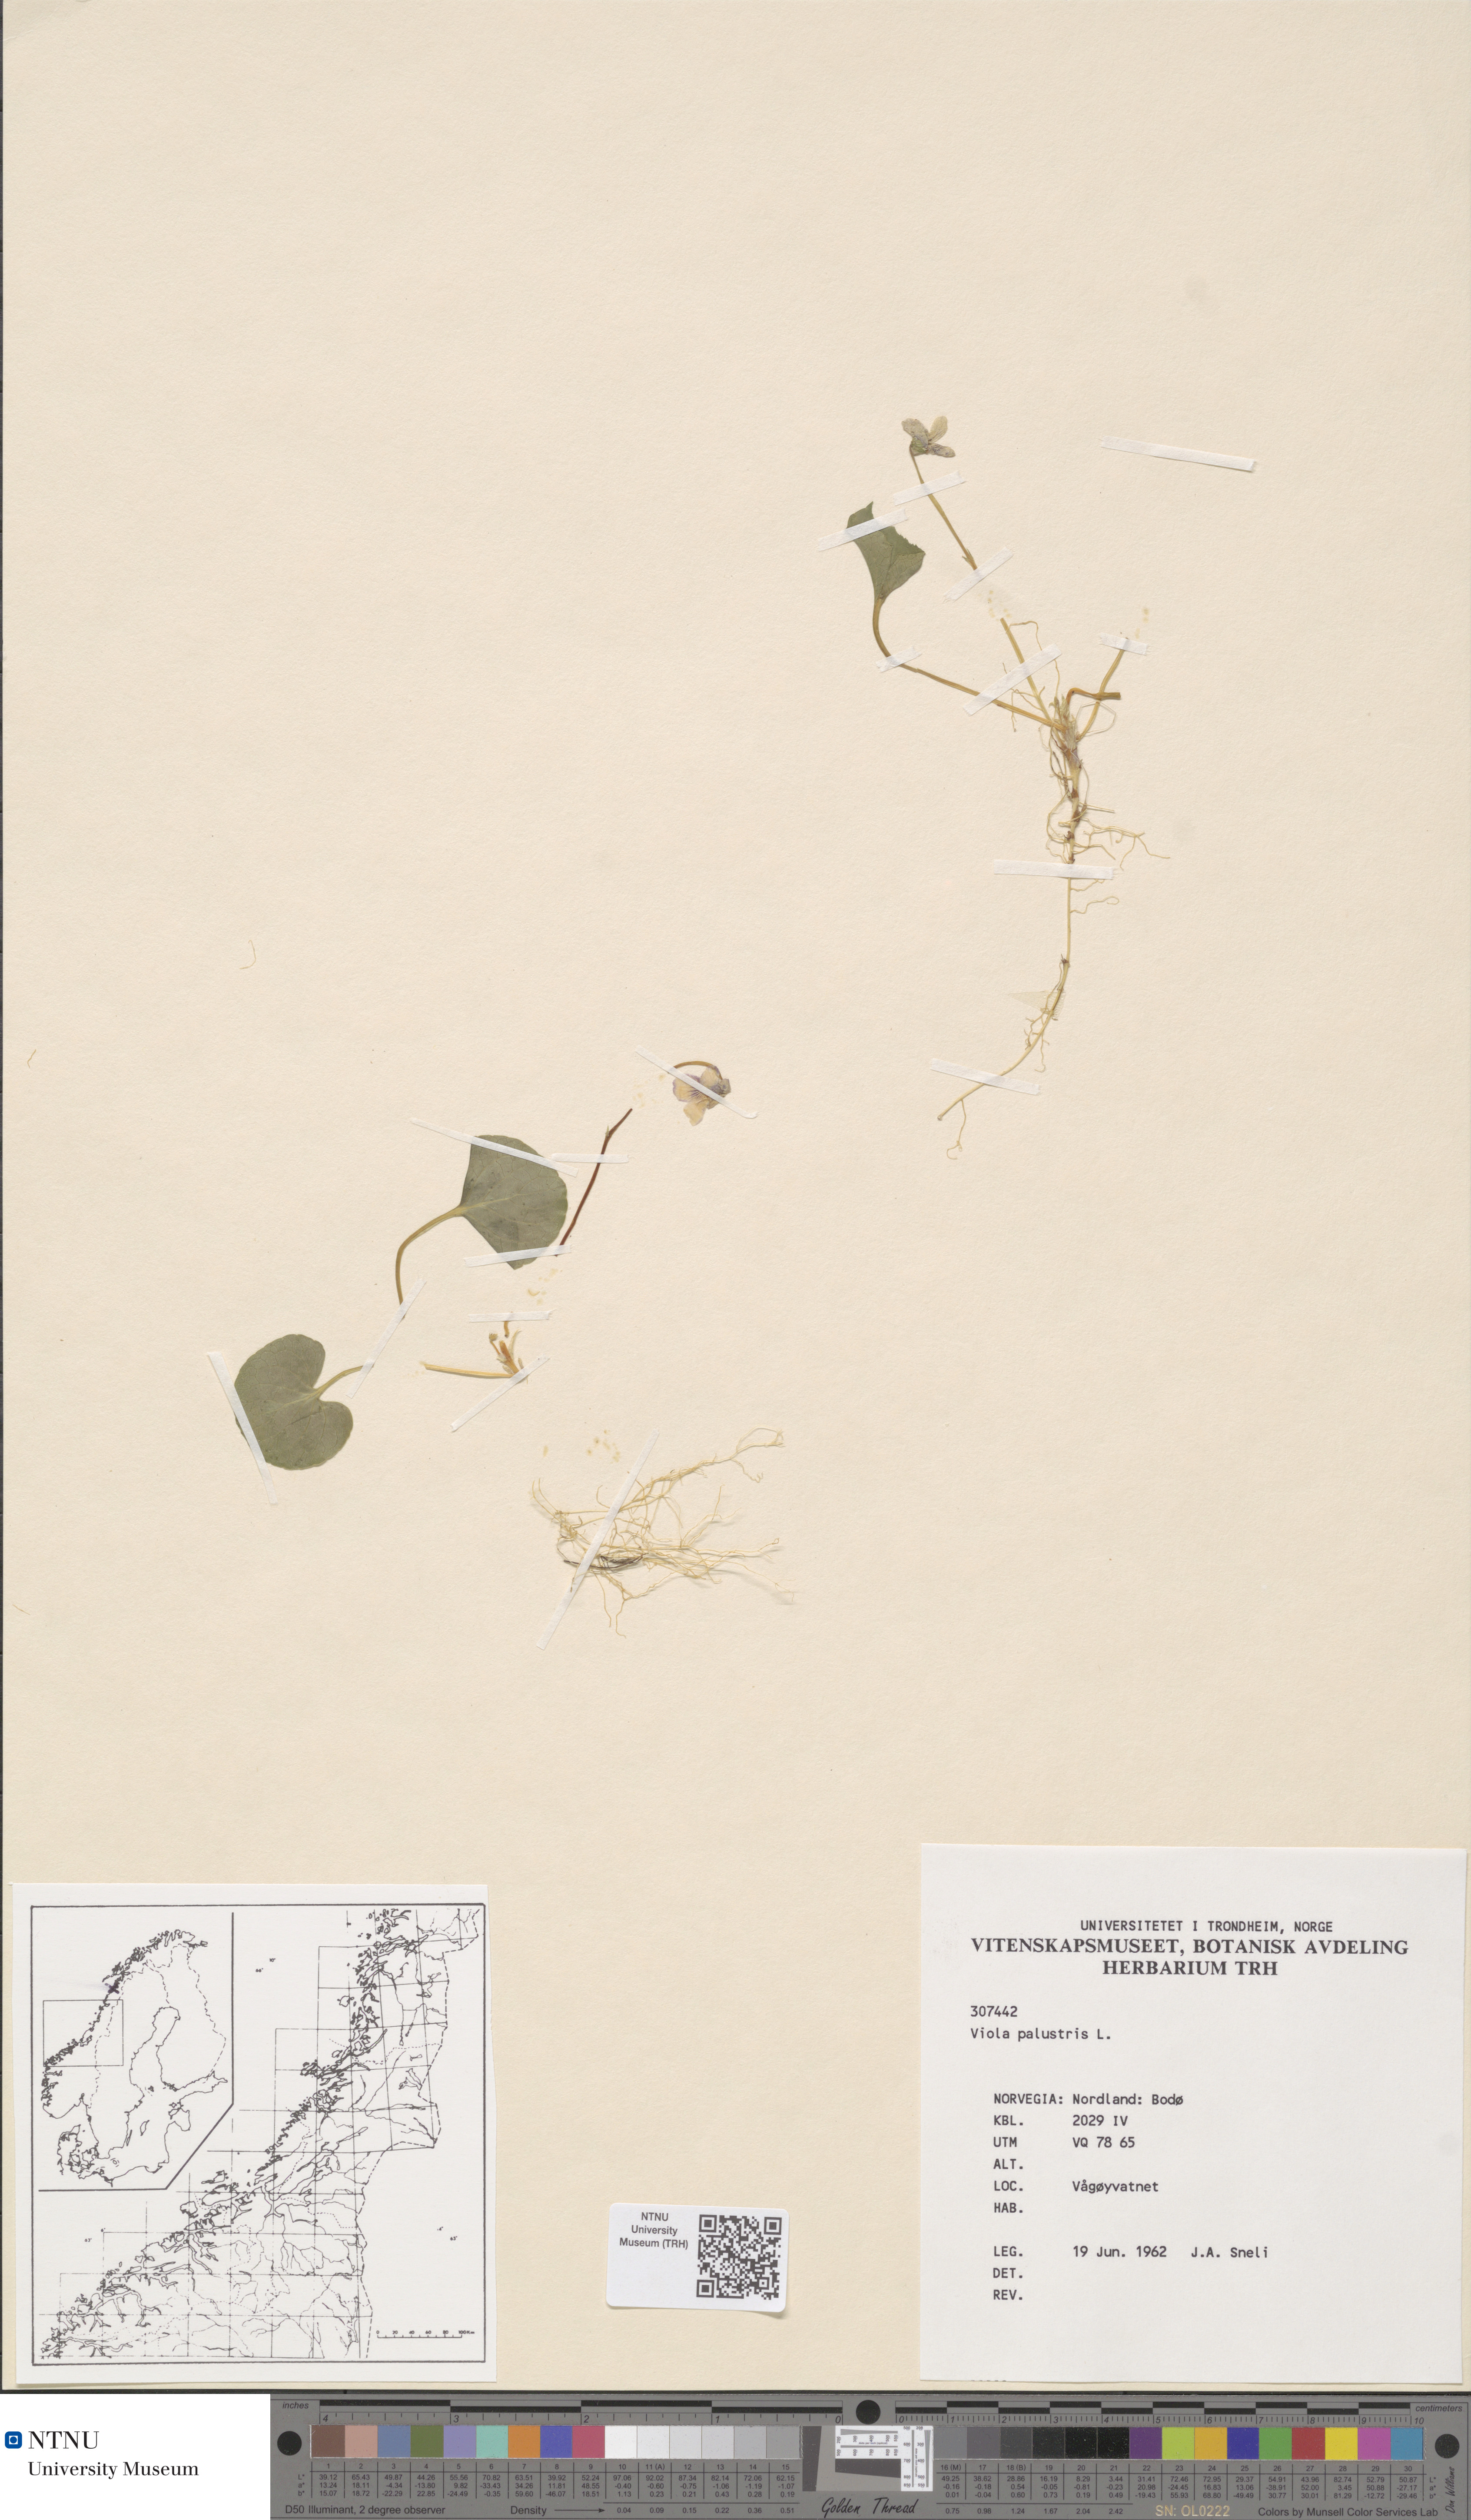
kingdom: Plantae
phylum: Tracheophyta
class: Magnoliopsida
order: Malpighiales
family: Violaceae
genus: Viola
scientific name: Viola palustris
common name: Marsh violet
